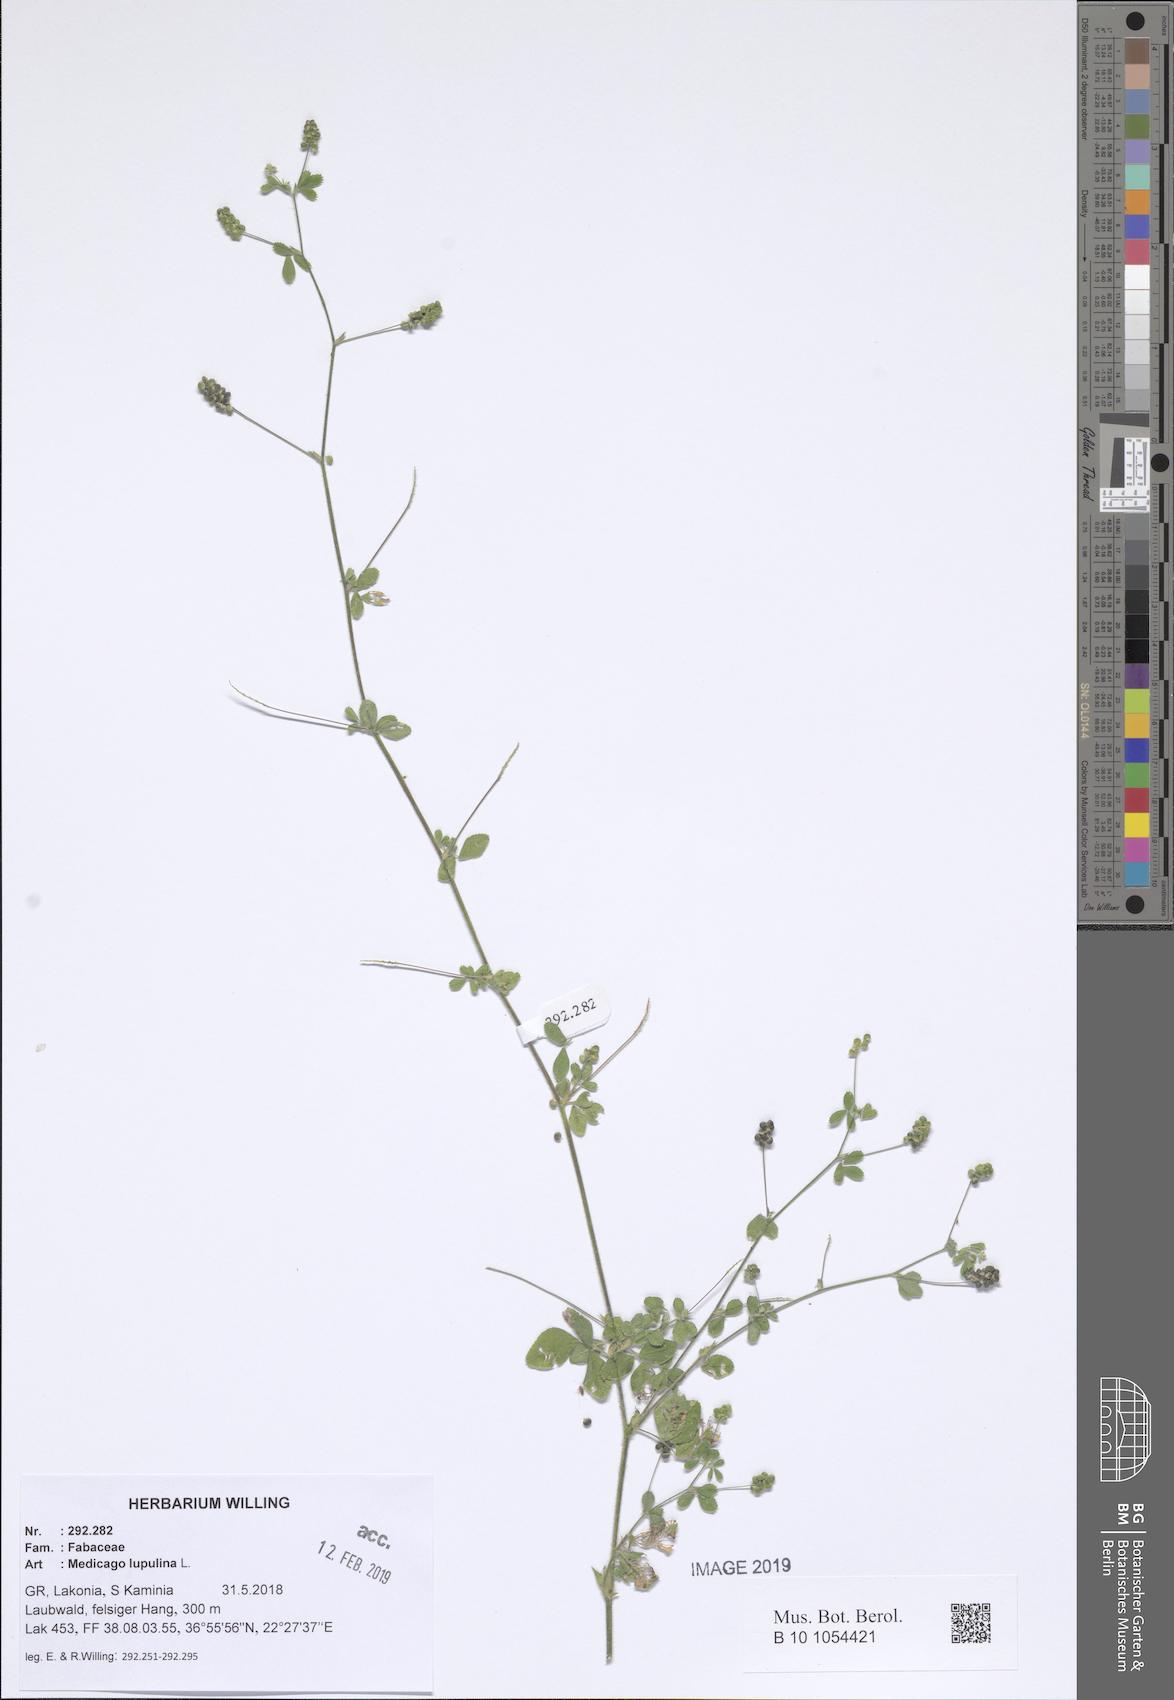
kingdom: Plantae
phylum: Tracheophyta
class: Magnoliopsida
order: Fabales
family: Fabaceae
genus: Medicago
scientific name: Medicago lupulina
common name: Black medick
